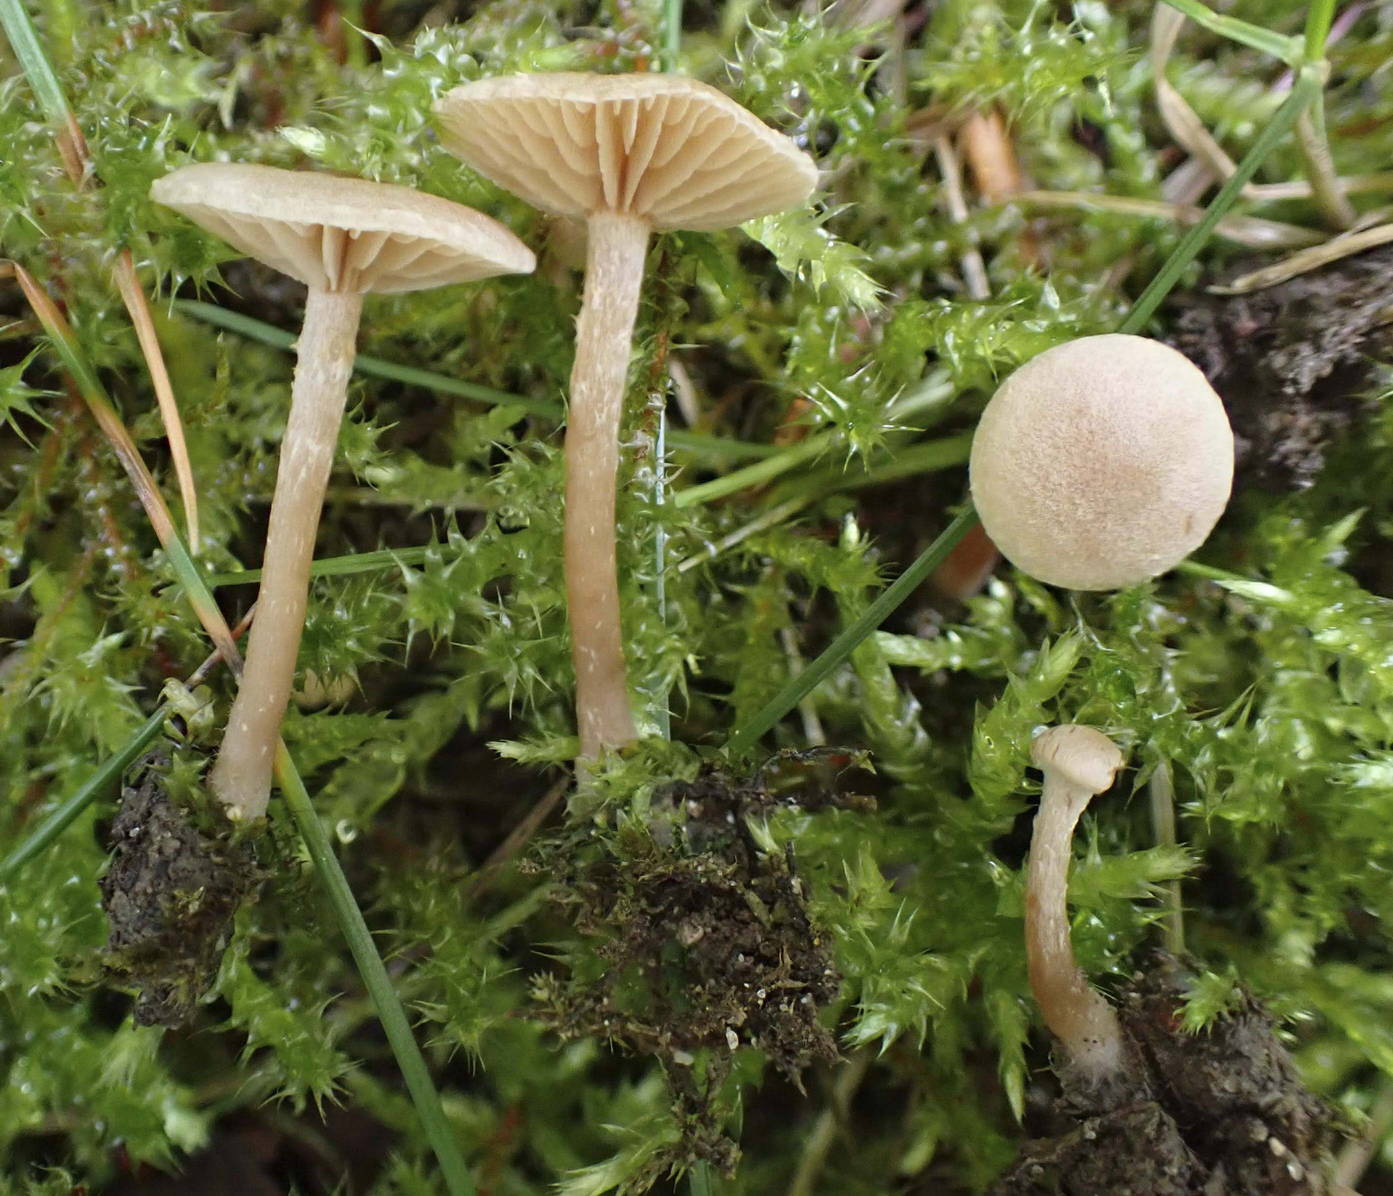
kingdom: Fungi
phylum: Basidiomycota
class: Agaricomycetes
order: Agaricales
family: Tubariaceae
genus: Tubaria
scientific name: Tubaria conspersa
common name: bleg fnughat
